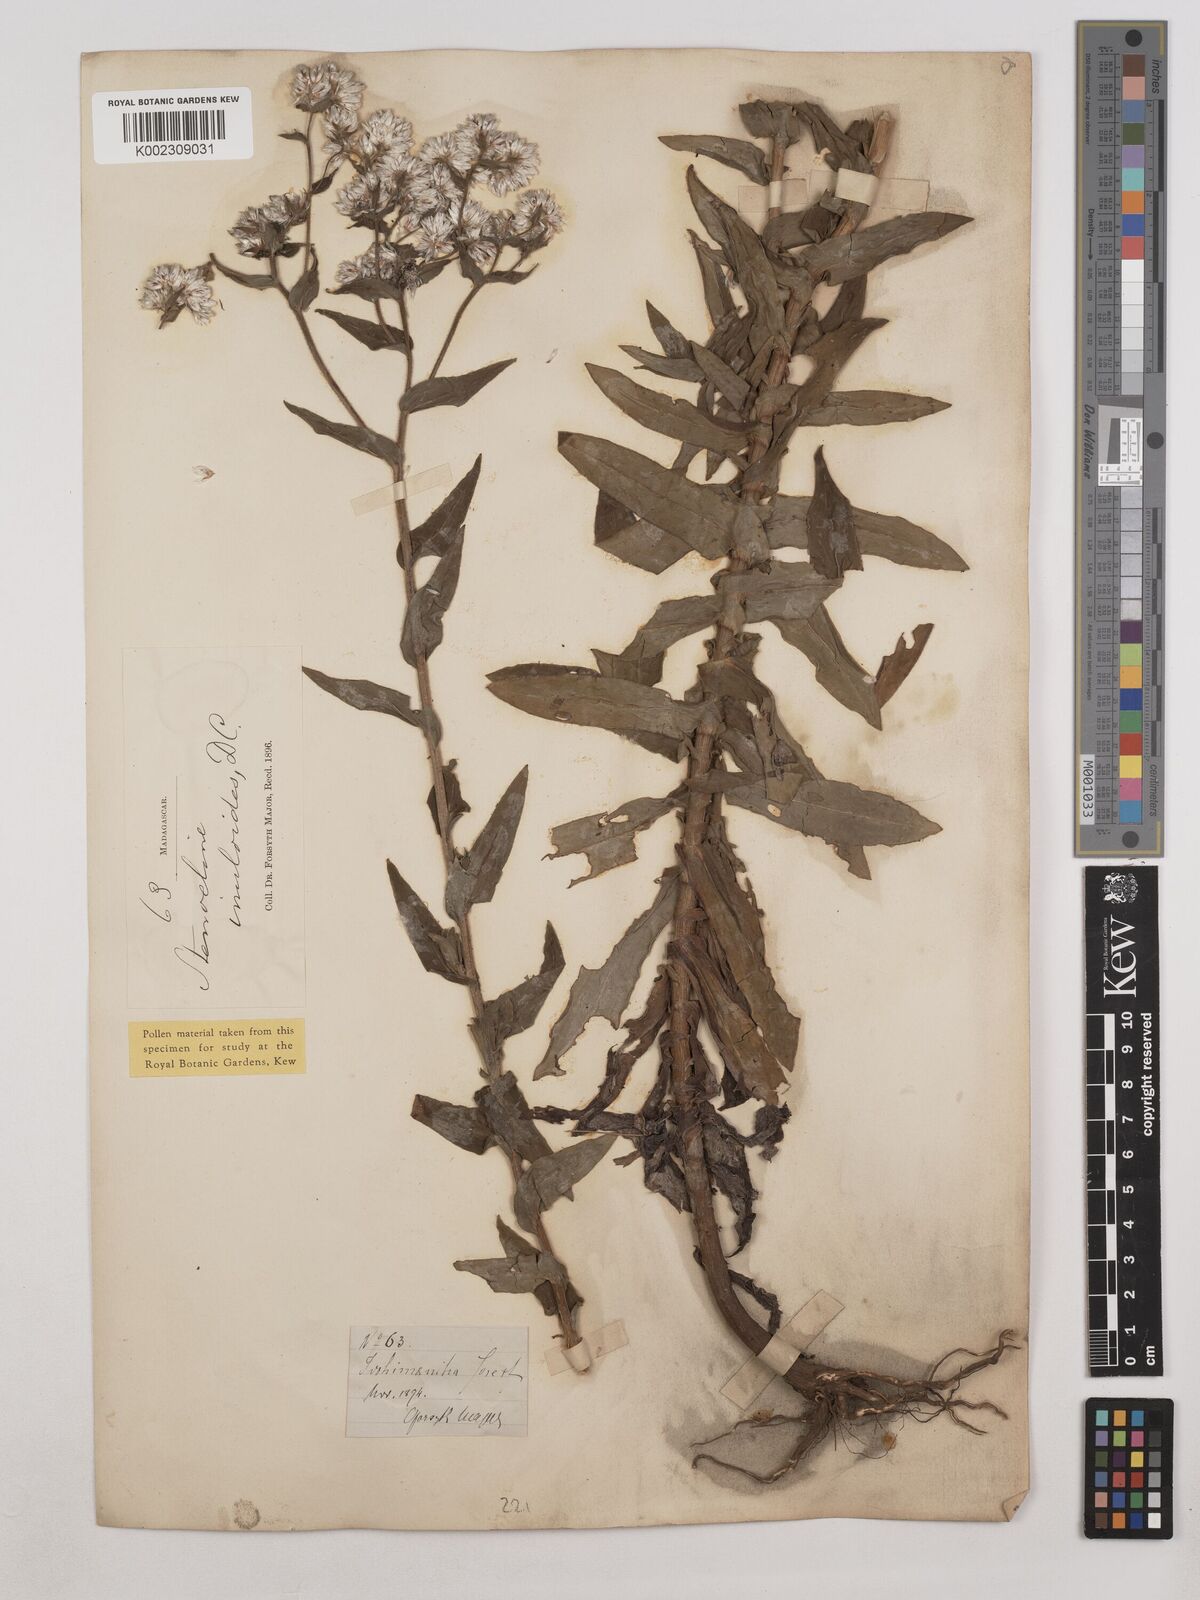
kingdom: Plantae
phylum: Tracheophyta
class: Magnoliopsida
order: Asterales
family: Asteraceae
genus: Stenocline
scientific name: Stenocline inuloides
